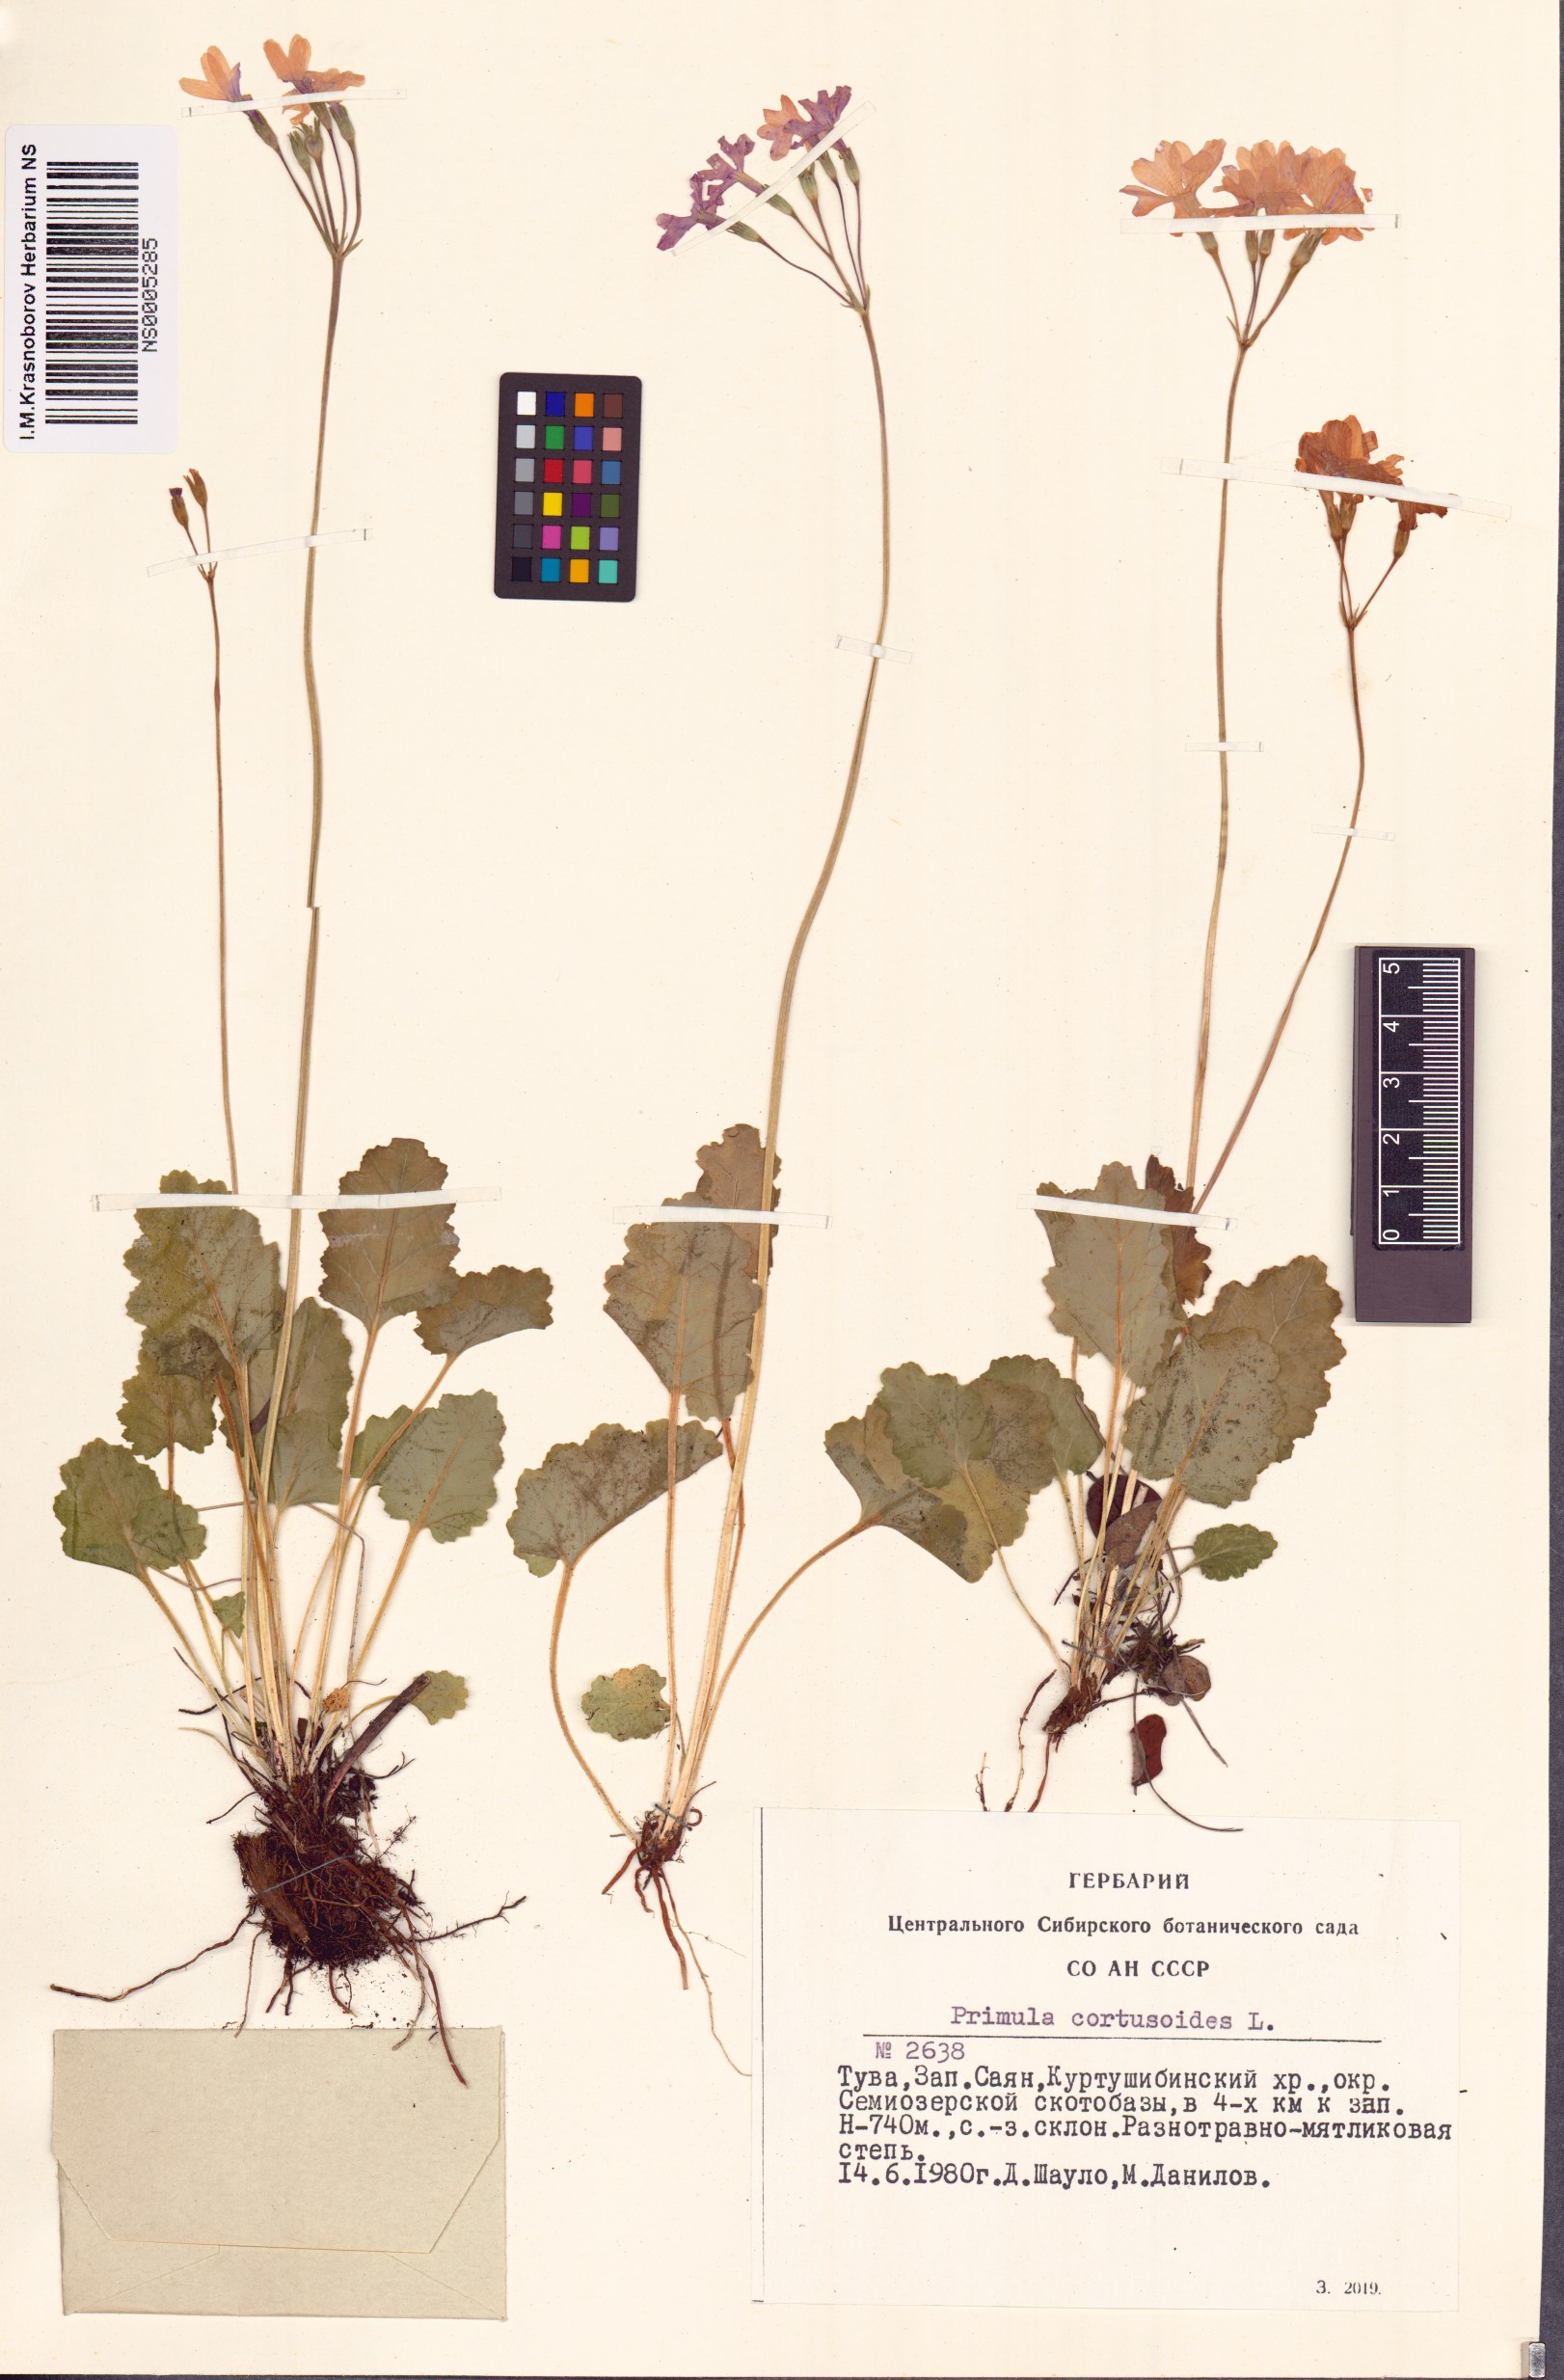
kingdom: Plantae
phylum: Tracheophyta
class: Magnoliopsida
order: Ericales
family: Primulaceae
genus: Primula
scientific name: Primula cortusoides
